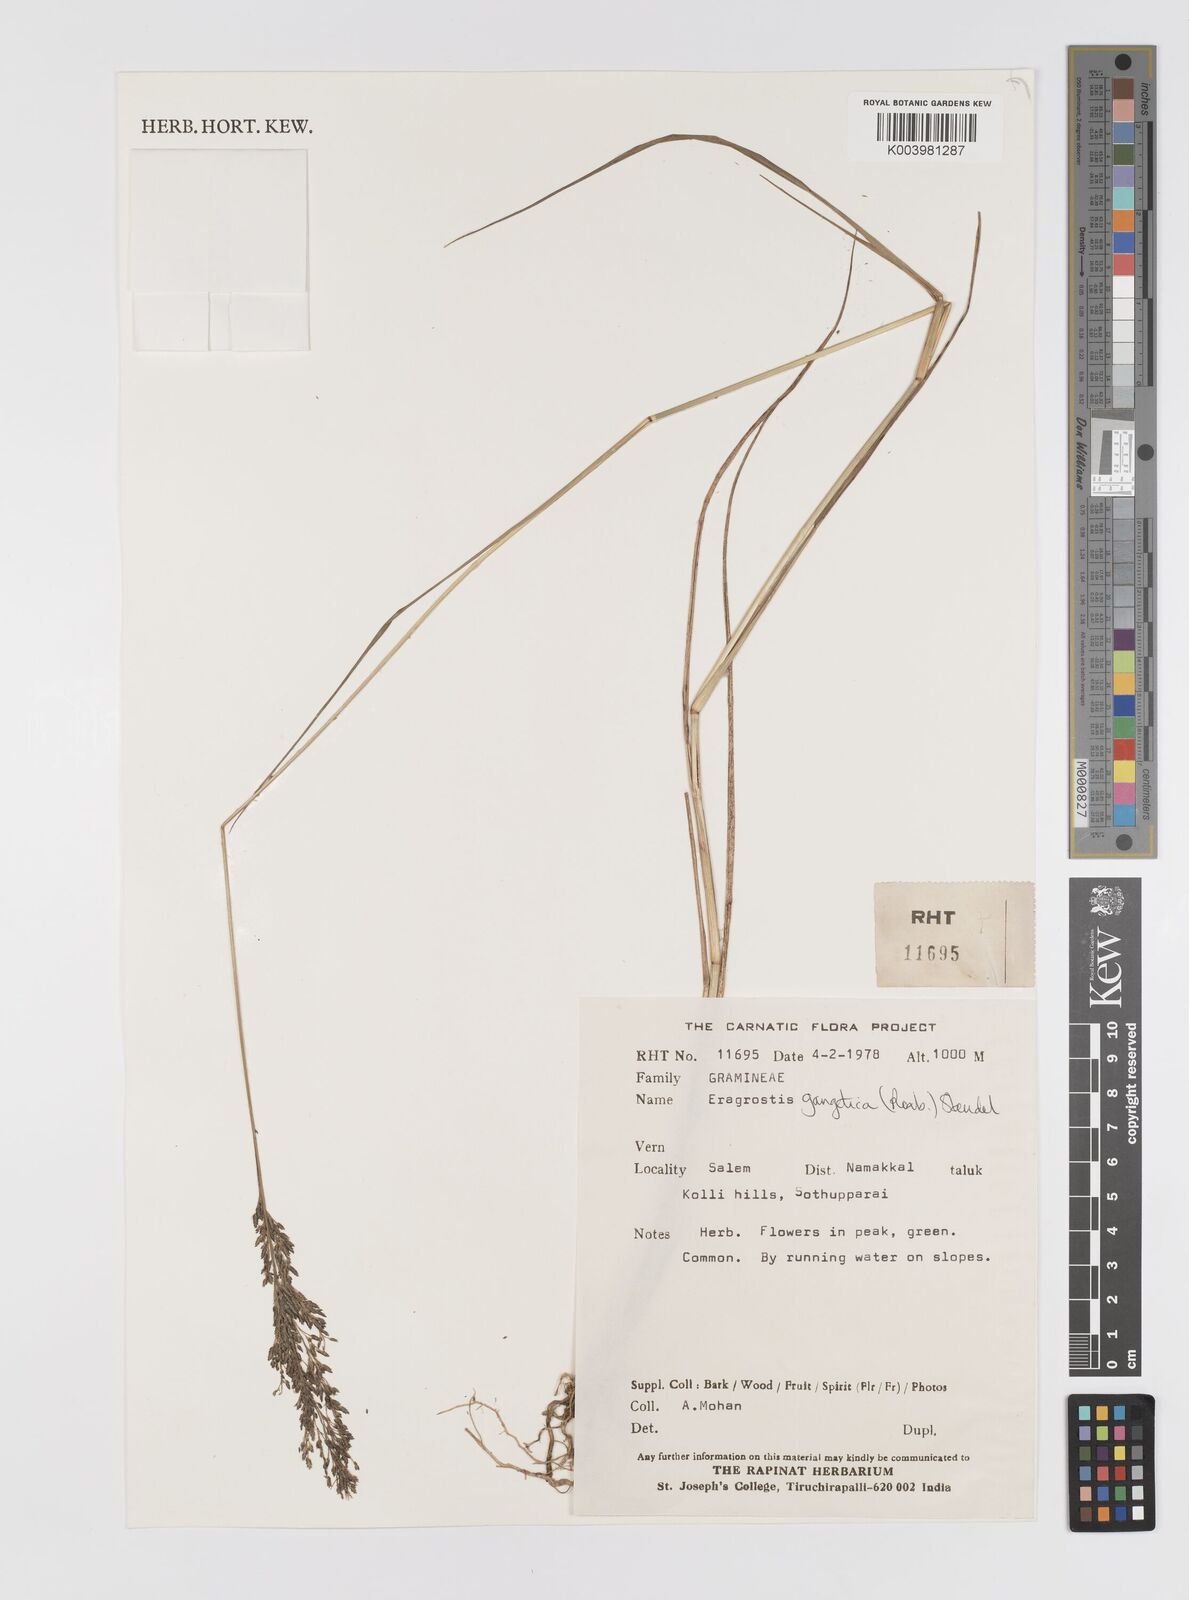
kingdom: Plantae
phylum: Tracheophyta
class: Liliopsida
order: Poales
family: Poaceae
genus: Eragrostis
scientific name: Eragrostis gangetica
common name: Slimflower lovegrass
